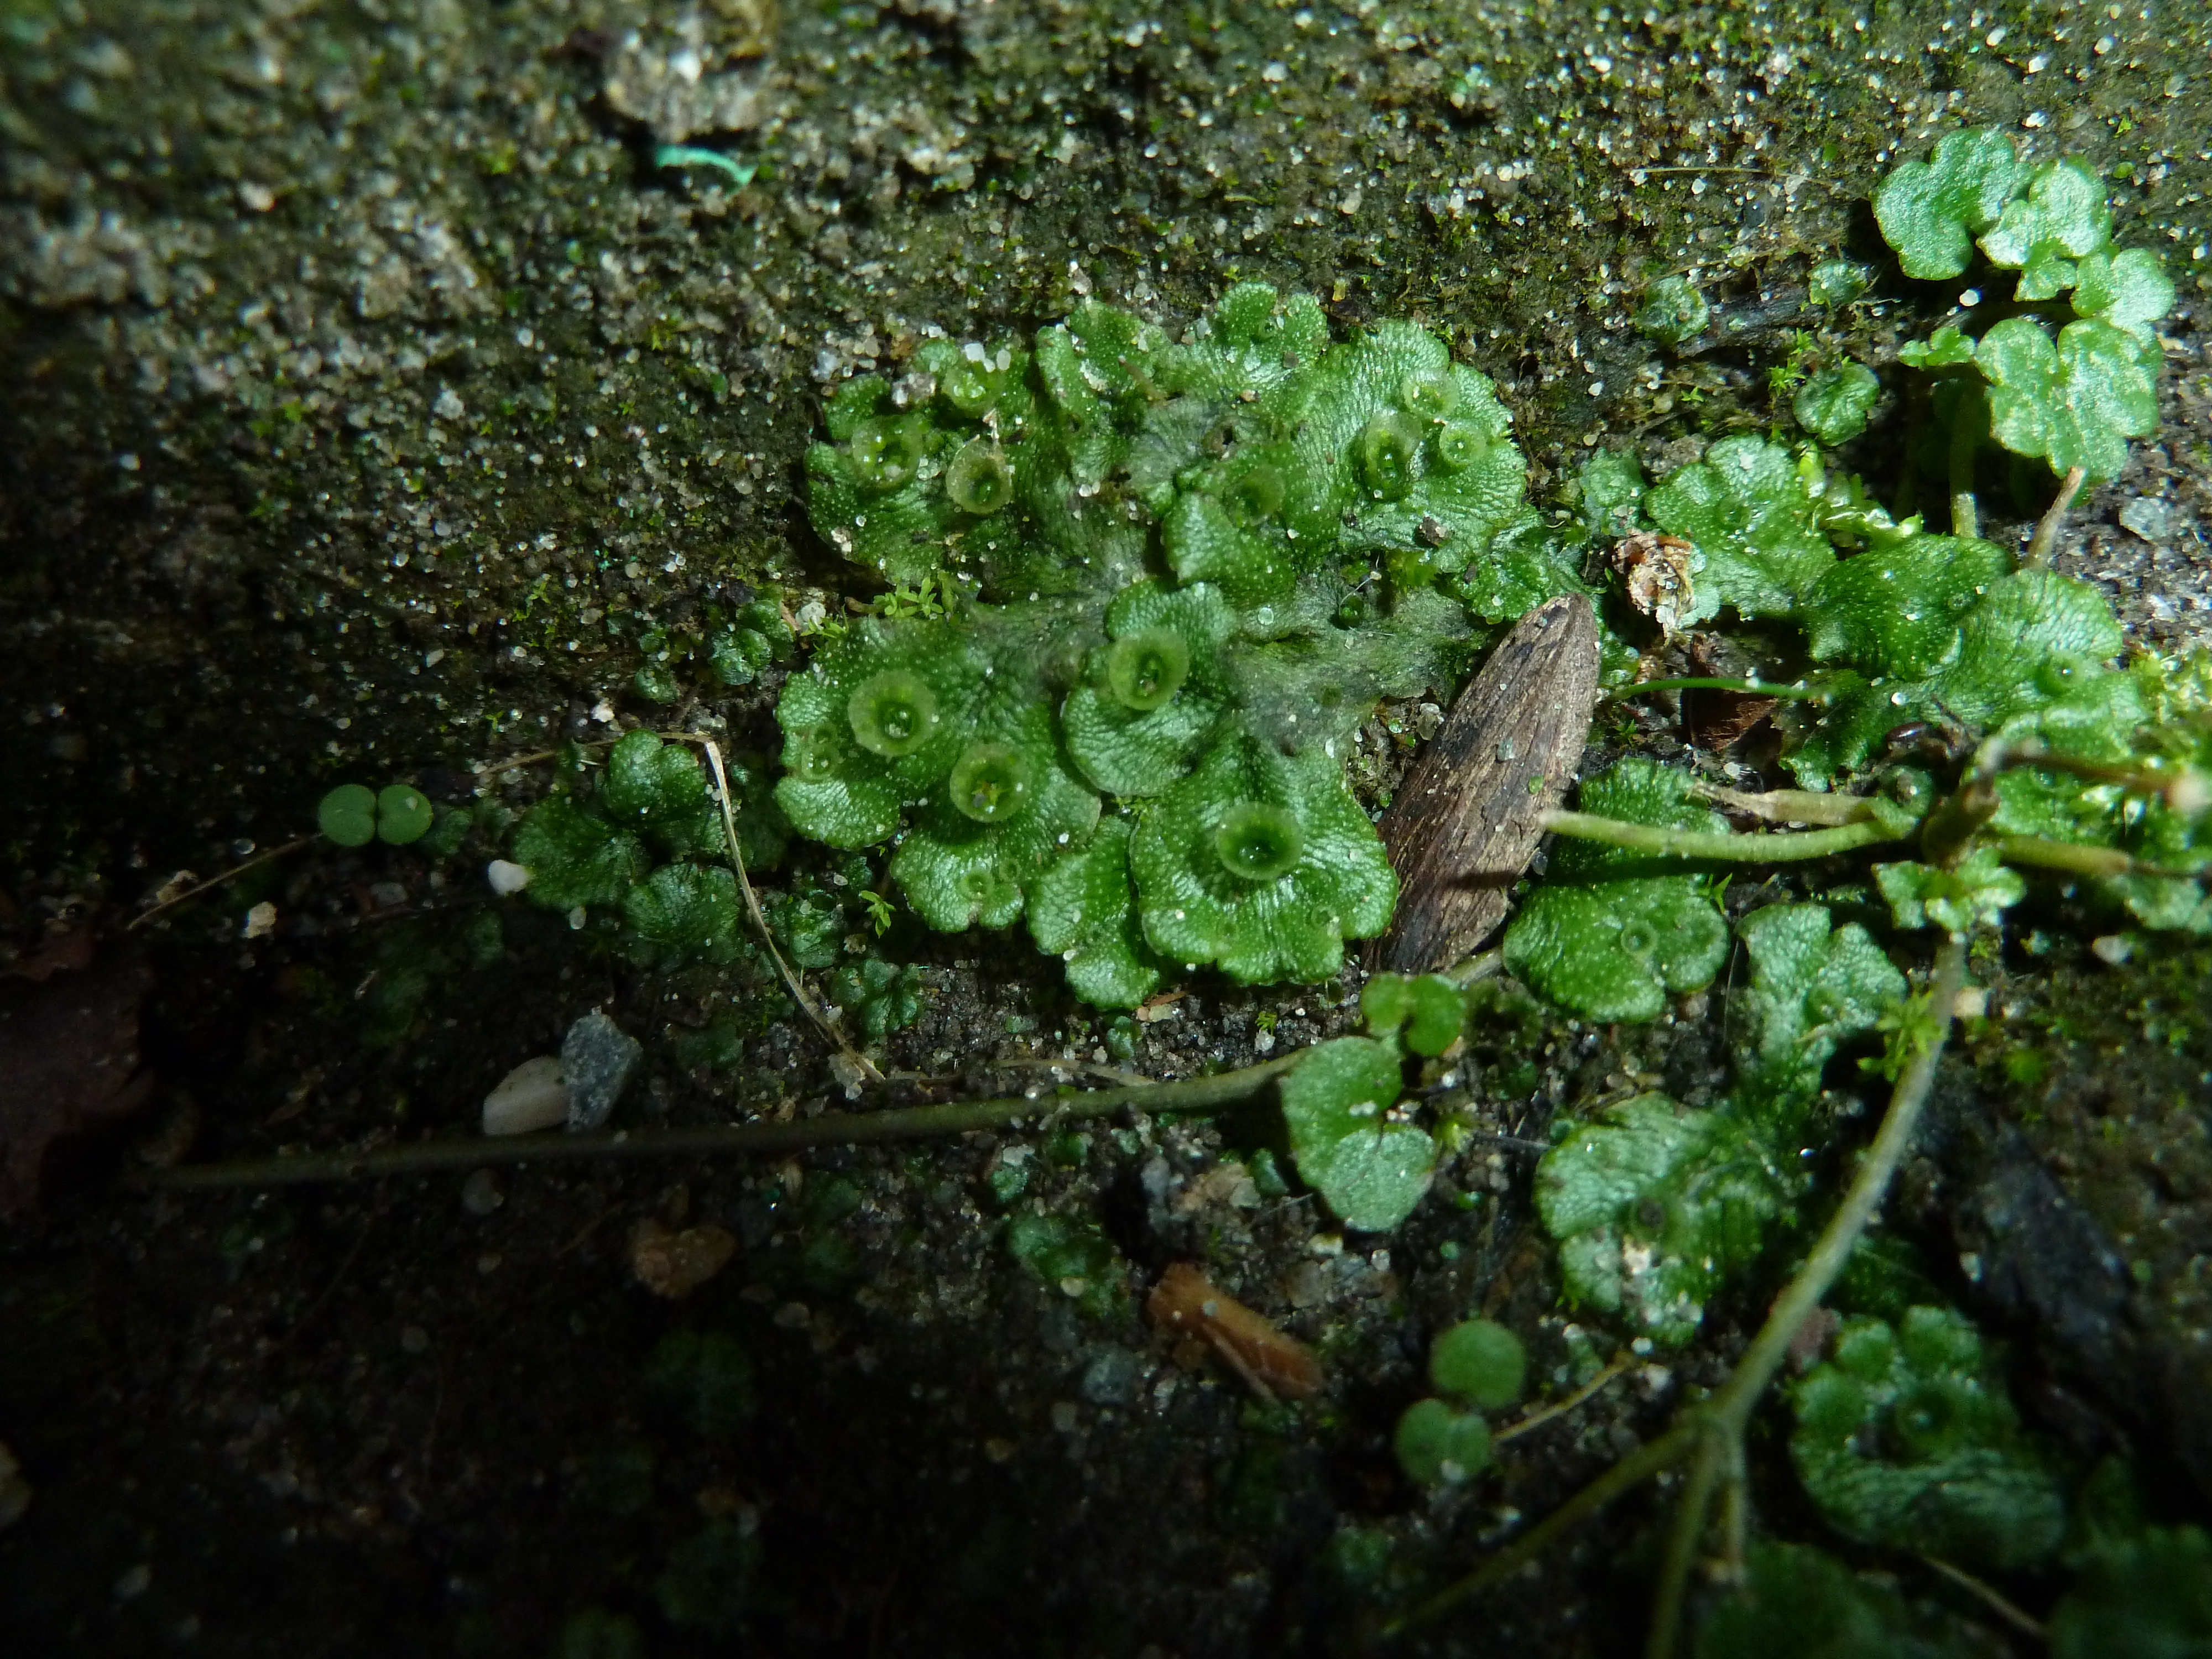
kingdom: Plantae
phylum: Marchantiophyta
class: Marchantiopsida
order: Marchantiales
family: Marchantiaceae
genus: Marchantia
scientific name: Marchantia polymorpha
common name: Common liverwort
